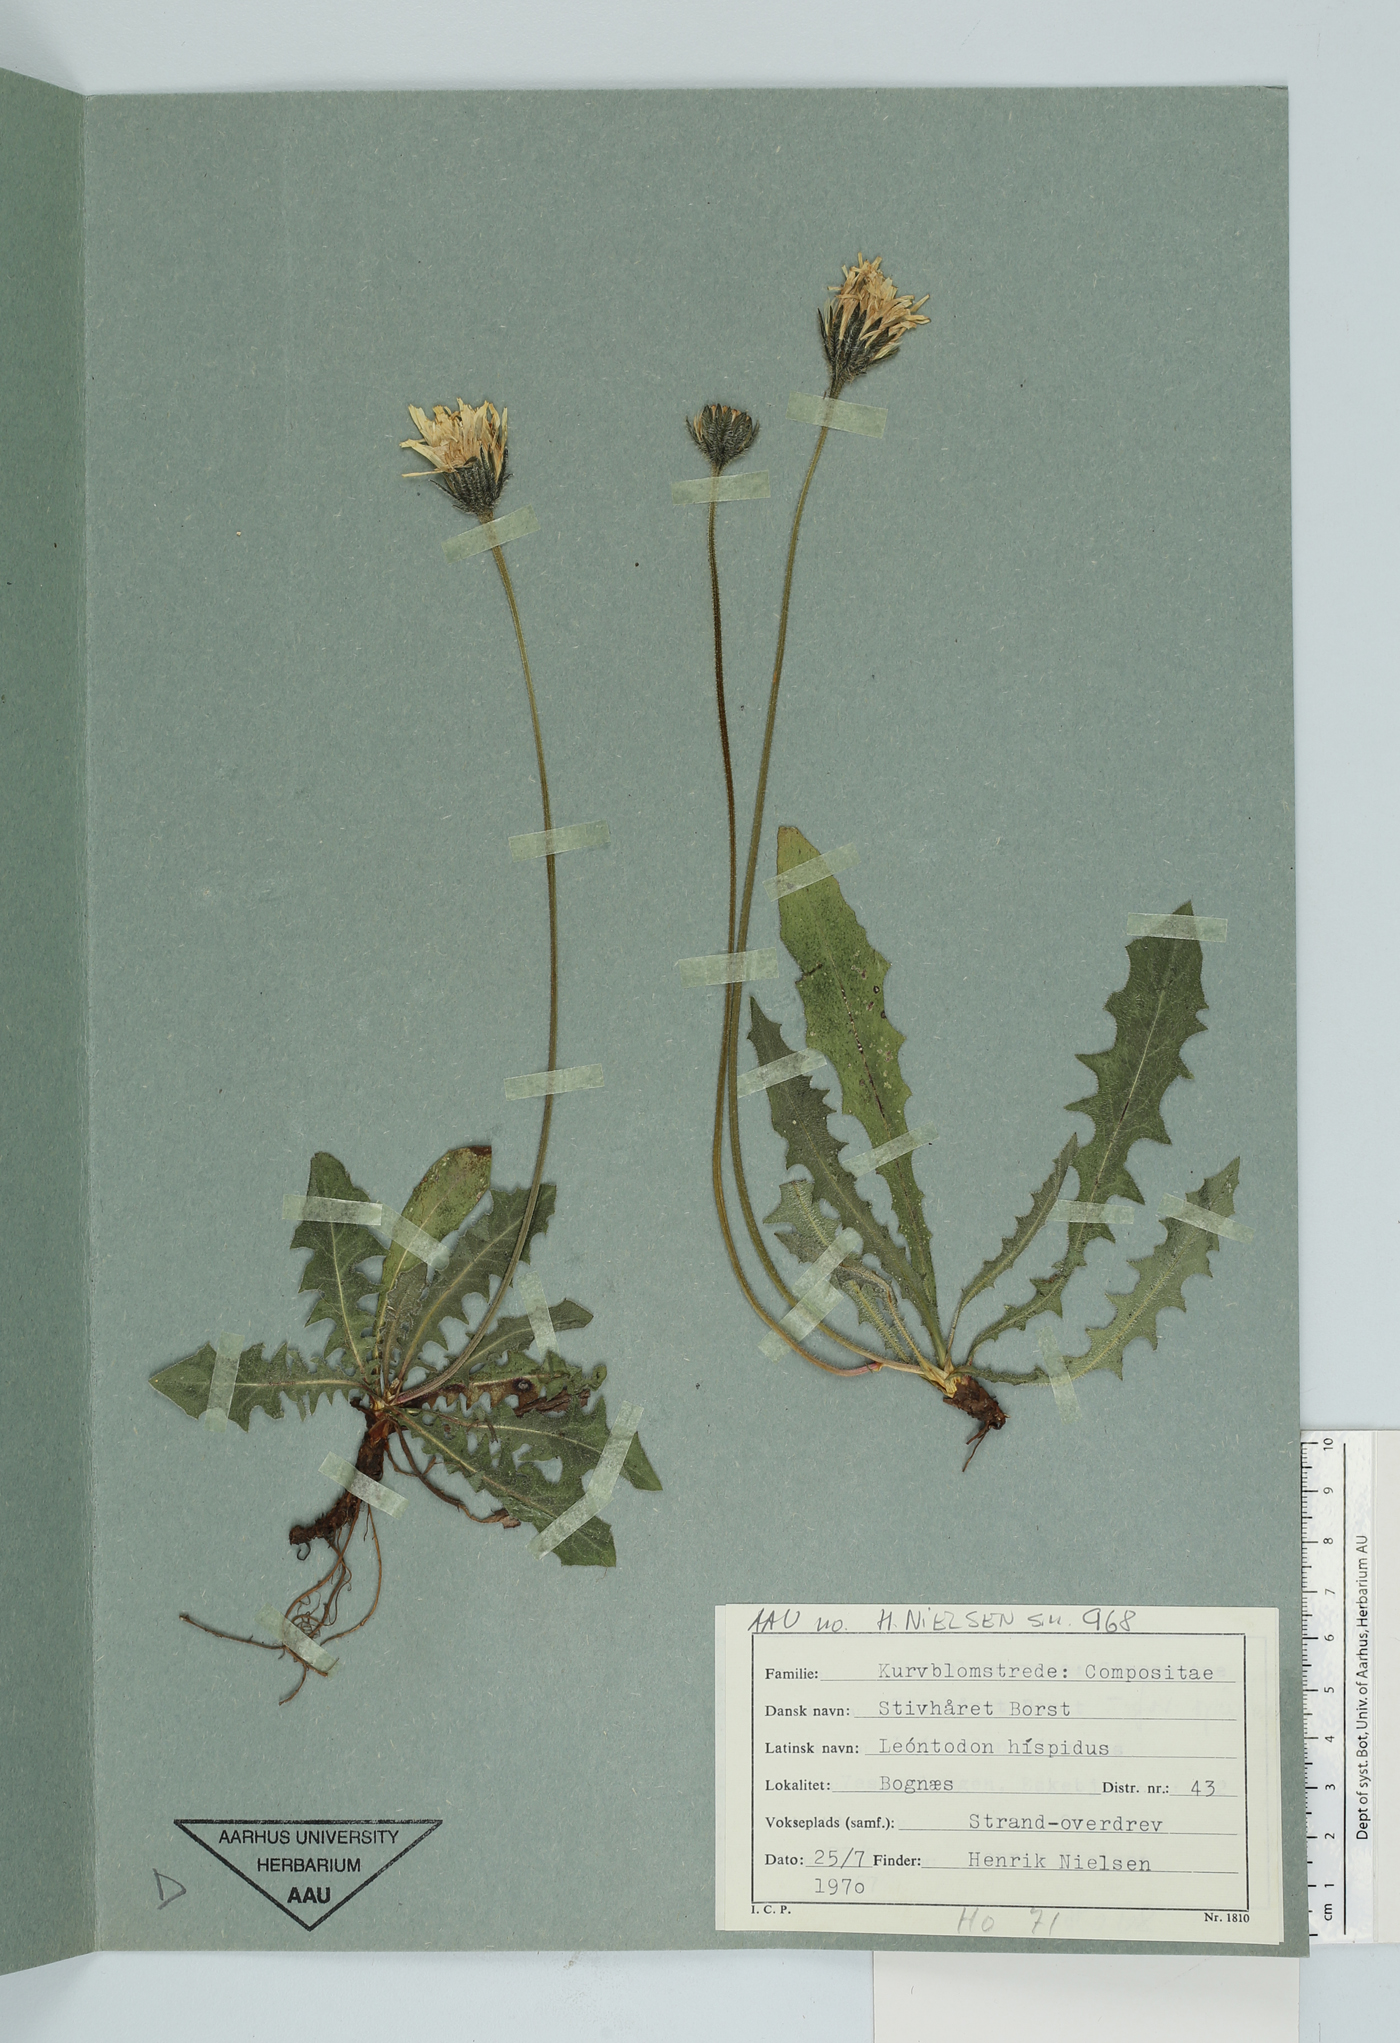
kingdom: Plantae
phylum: Tracheophyta
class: Magnoliopsida
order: Asterales
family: Asteraceae
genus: Leontodon
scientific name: Leontodon hispidus
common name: Rough hawkbit
